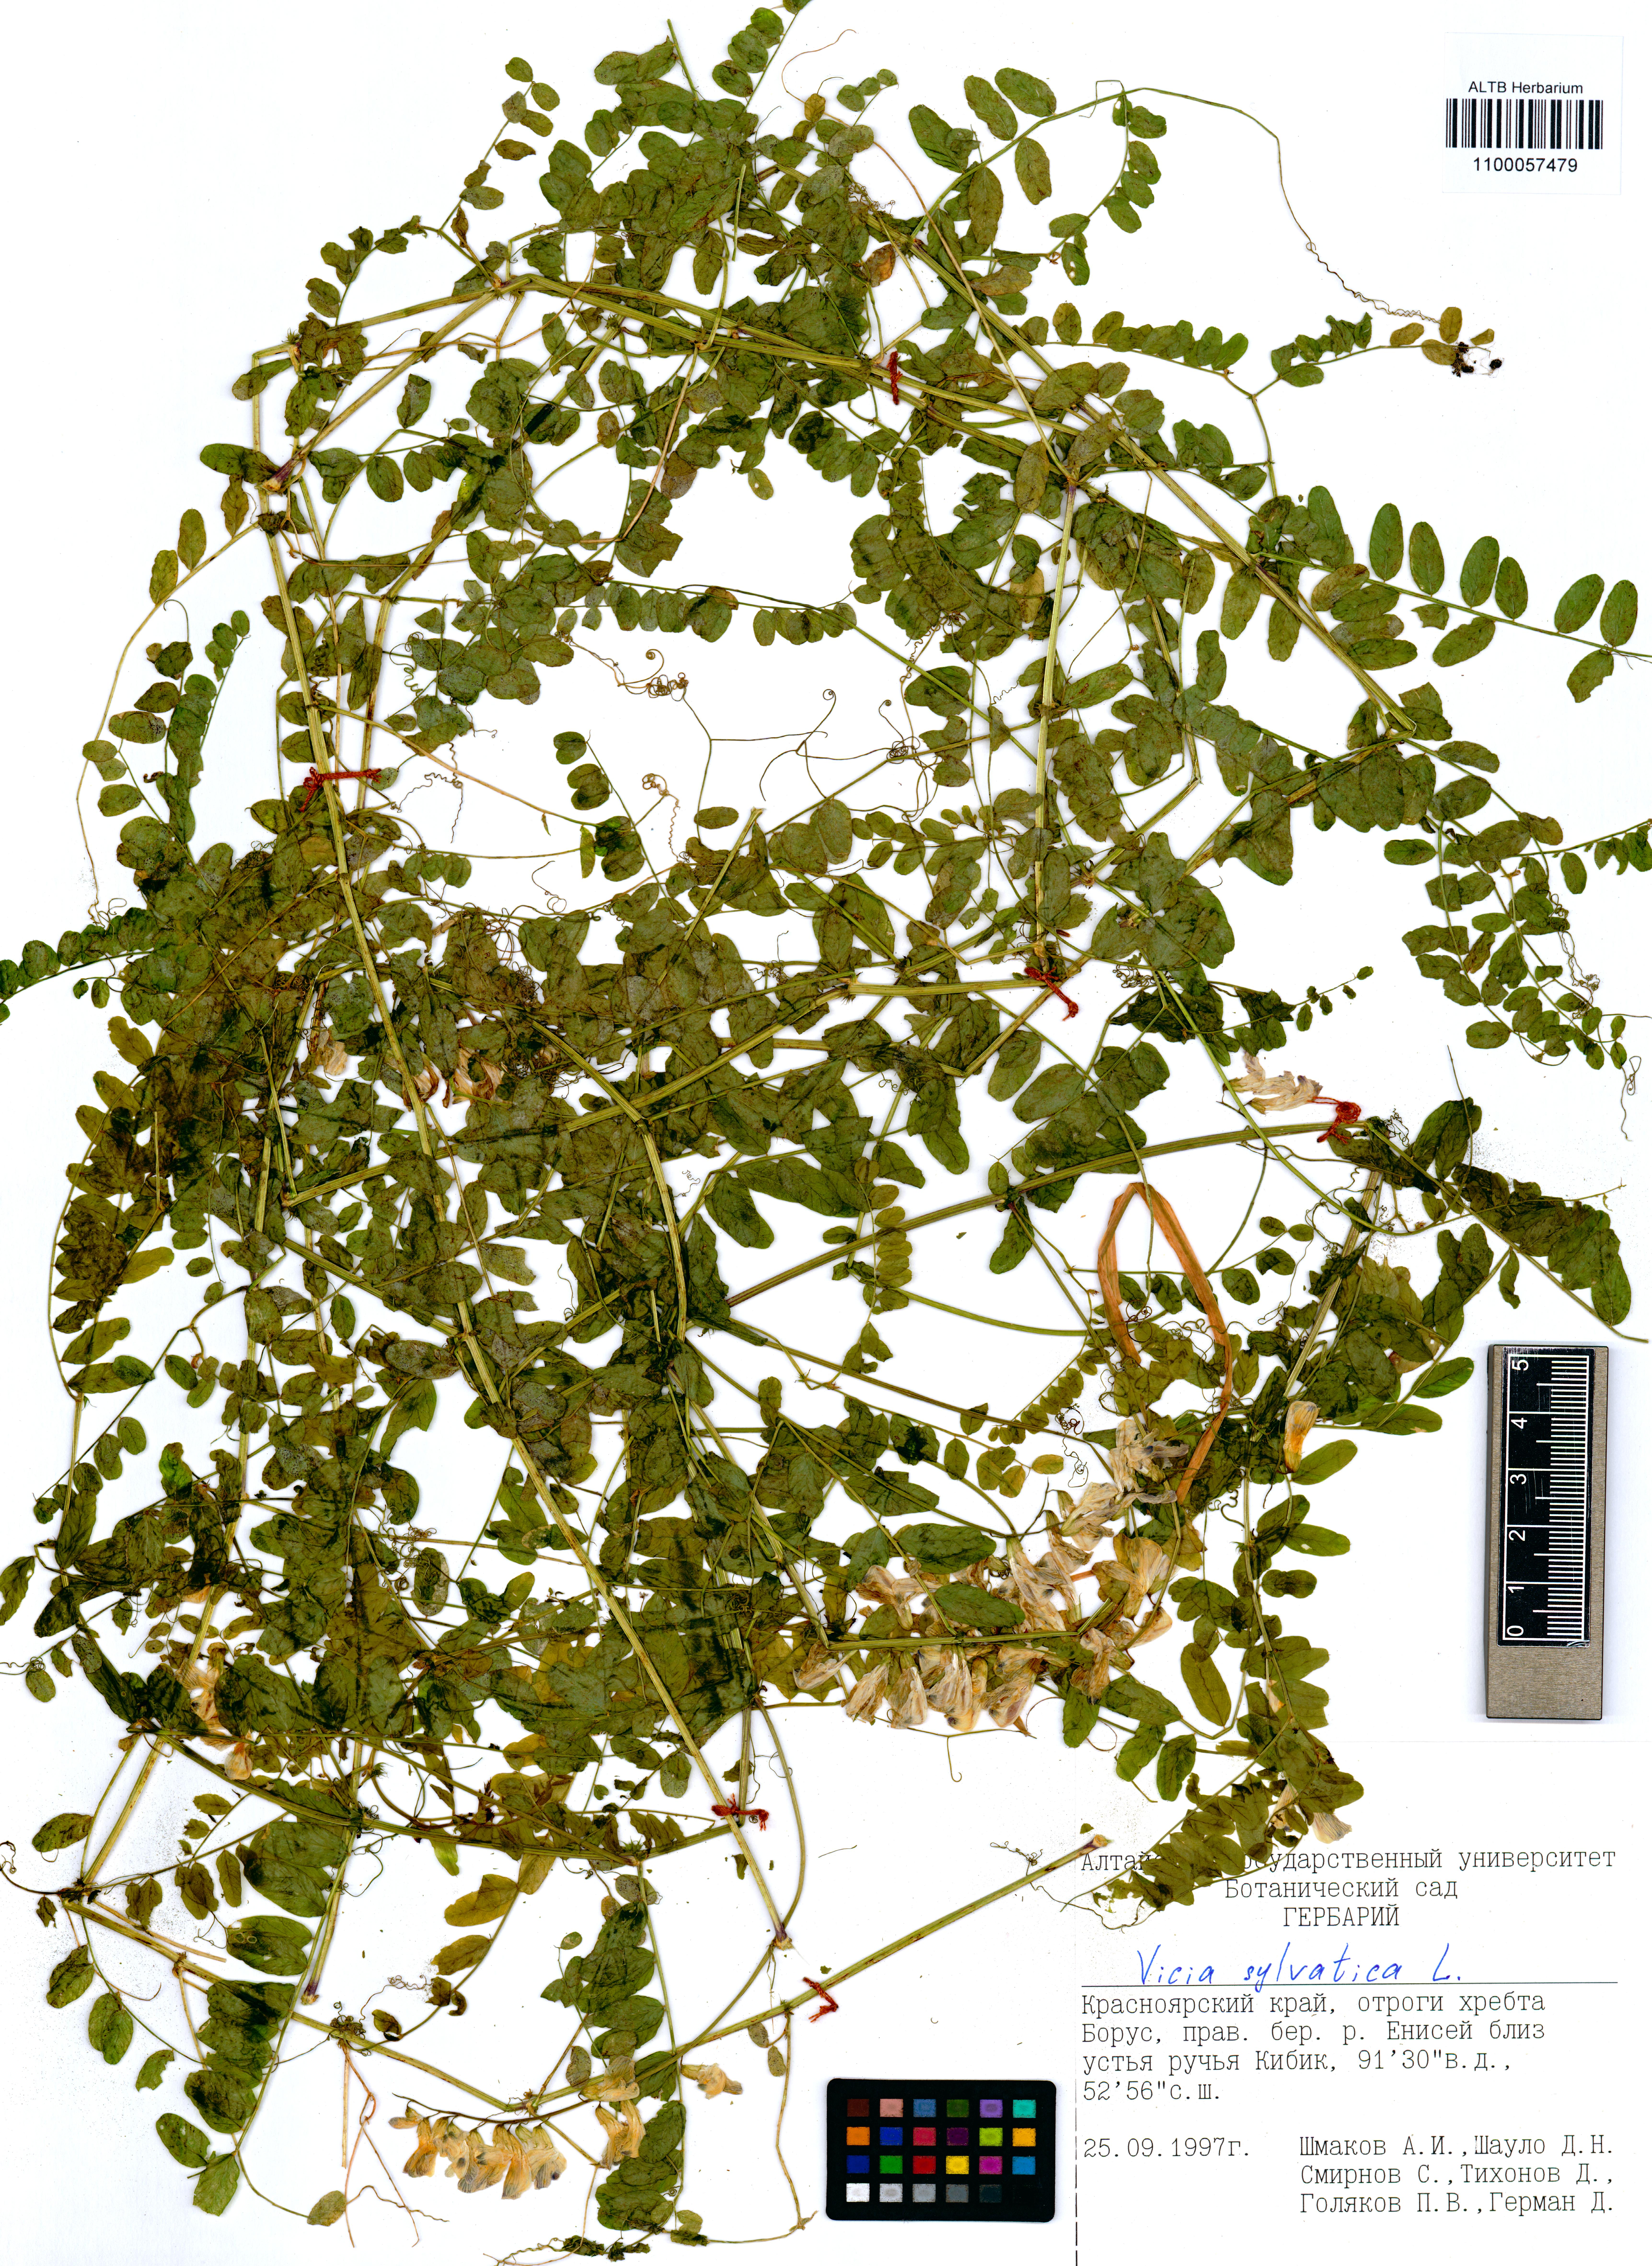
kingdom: Plantae
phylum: Tracheophyta
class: Magnoliopsida
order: Fabales
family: Fabaceae
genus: Vicia
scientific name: Vicia sylvatica
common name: Wood vetch
